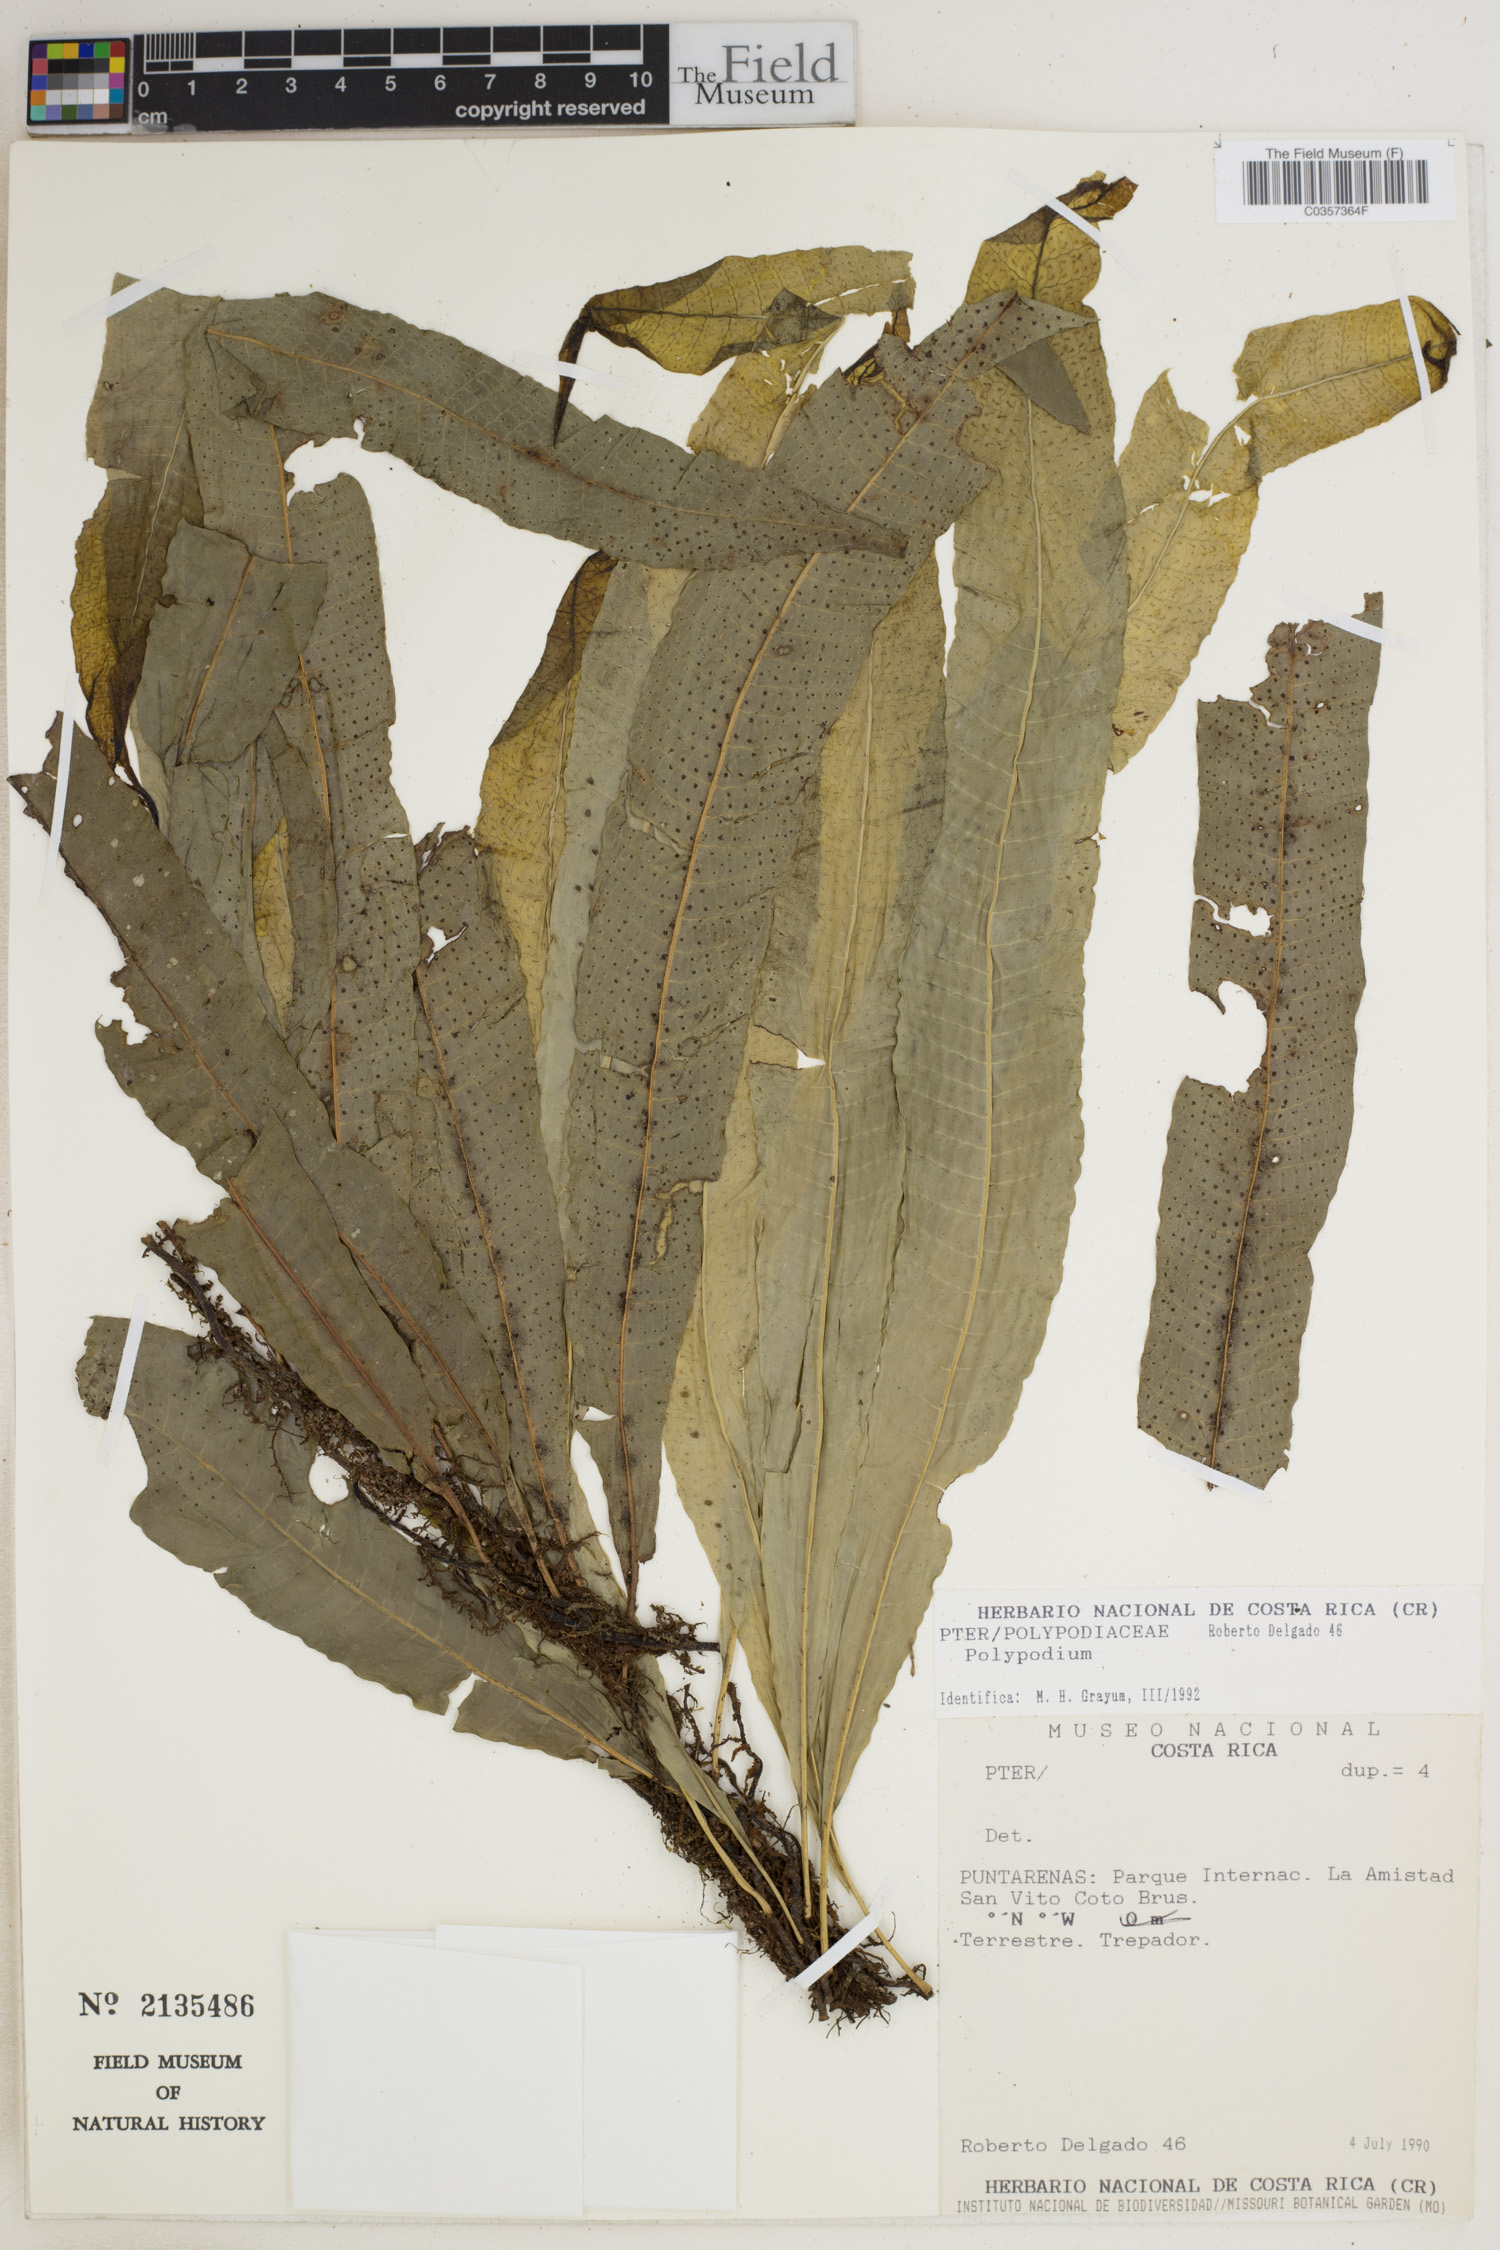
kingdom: Plantae
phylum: Tracheophyta
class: Polypodiopsida
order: Polypodiales
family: Polypodiaceae
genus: Polypodium
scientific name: Polypodium
